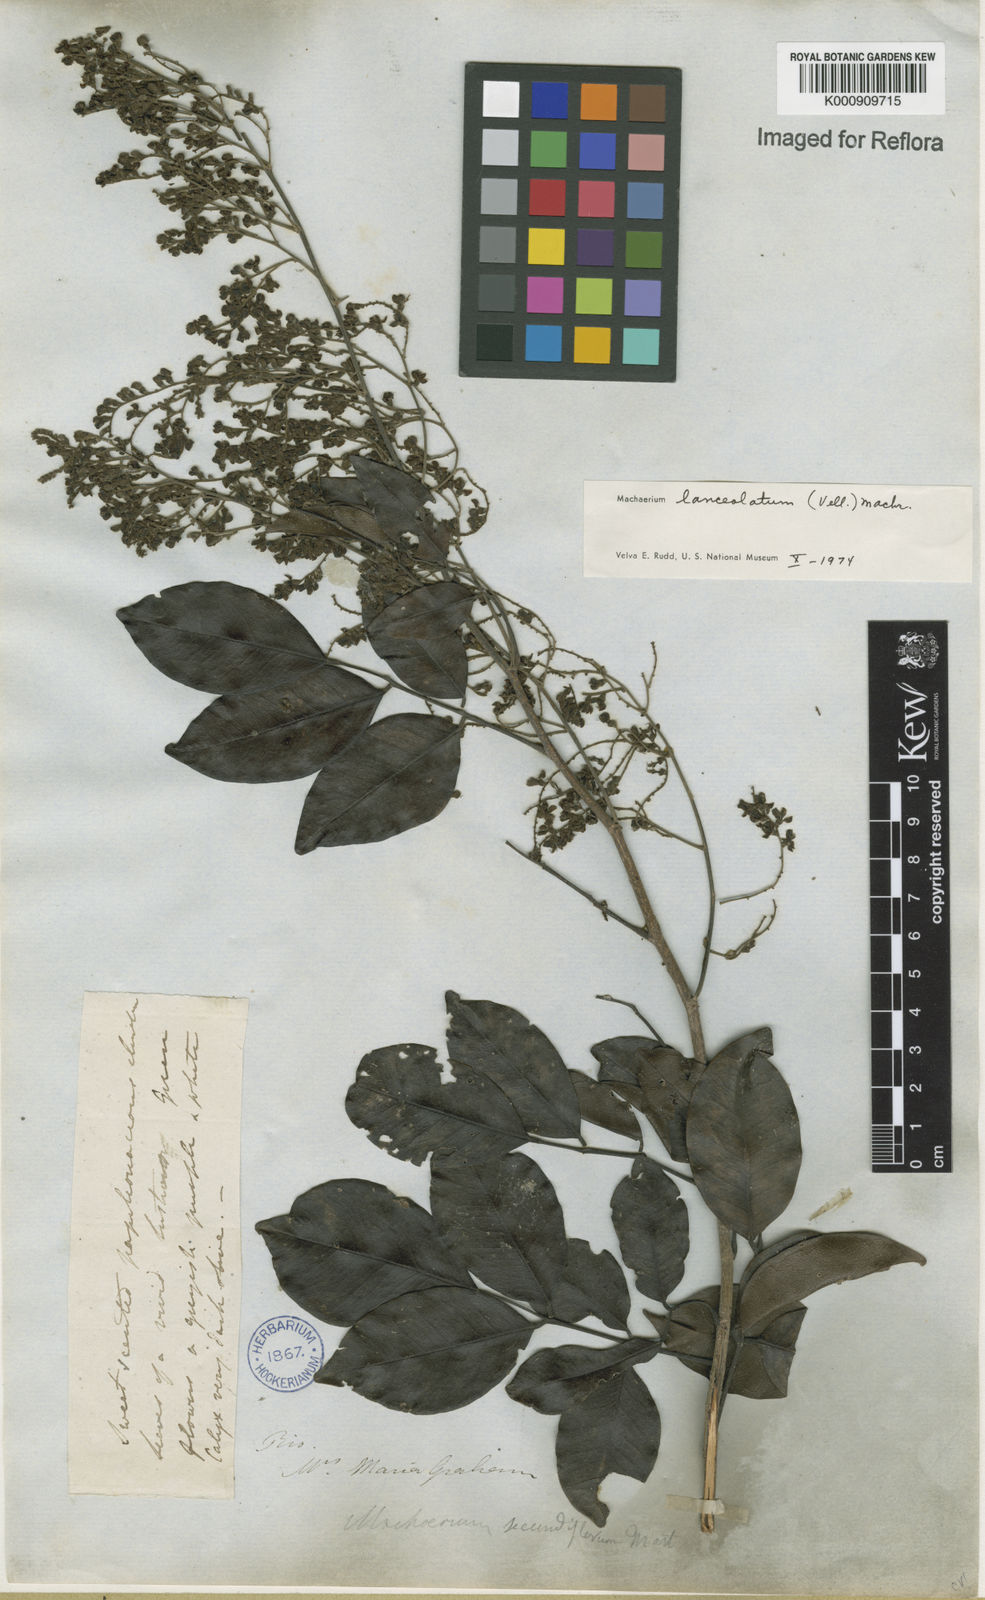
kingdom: Plantae
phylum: Tracheophyta
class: Magnoliopsida
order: Fabales
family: Fabaceae
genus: Machaerium
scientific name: Machaerium lanceolatum
